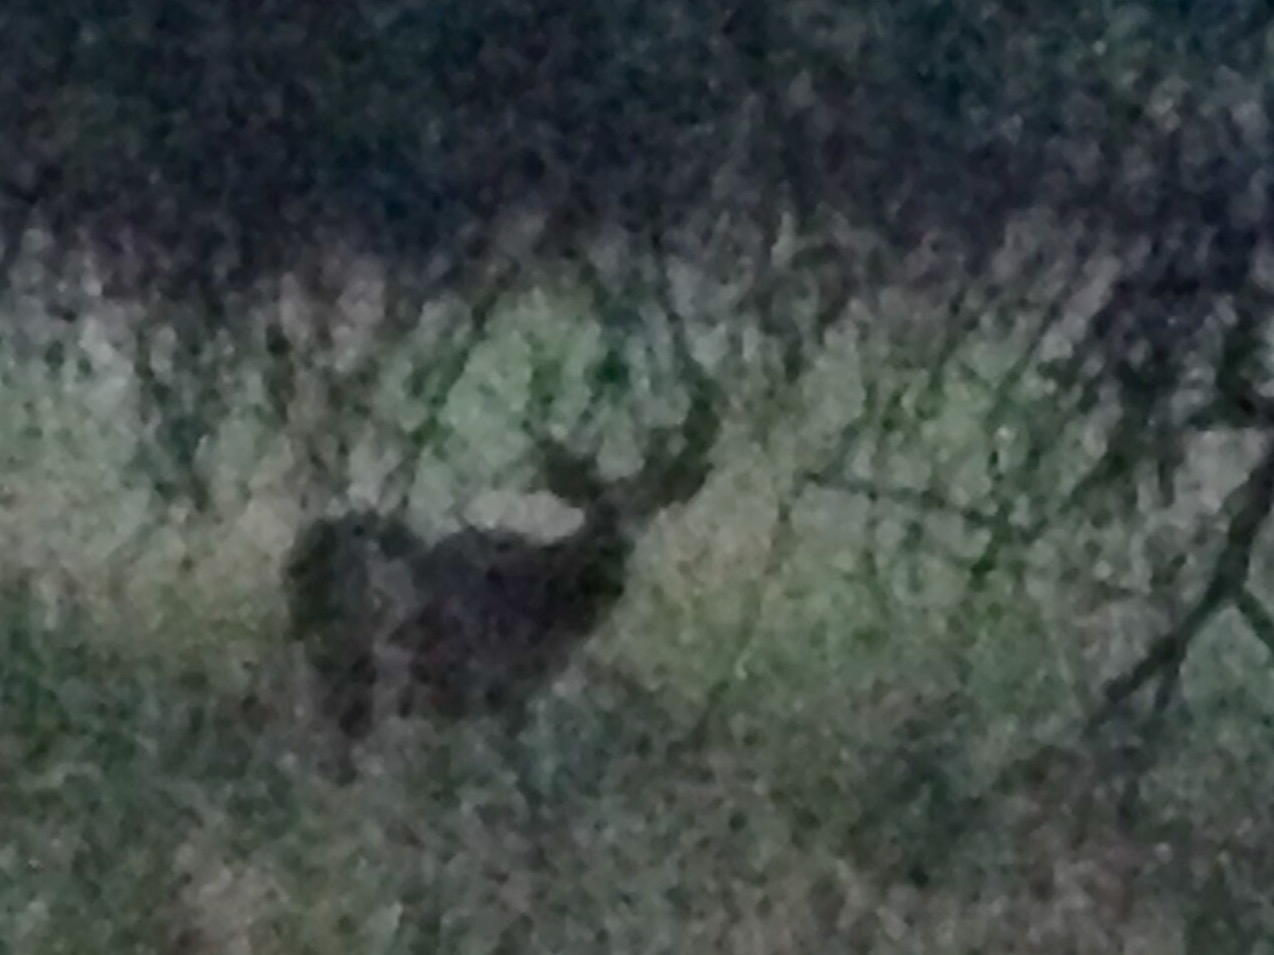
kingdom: Animalia
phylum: Chordata
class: Mammalia
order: Artiodactyla
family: Cervidae
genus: Odocoileus
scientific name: Odocoileus virginianus
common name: White-tailed deer
